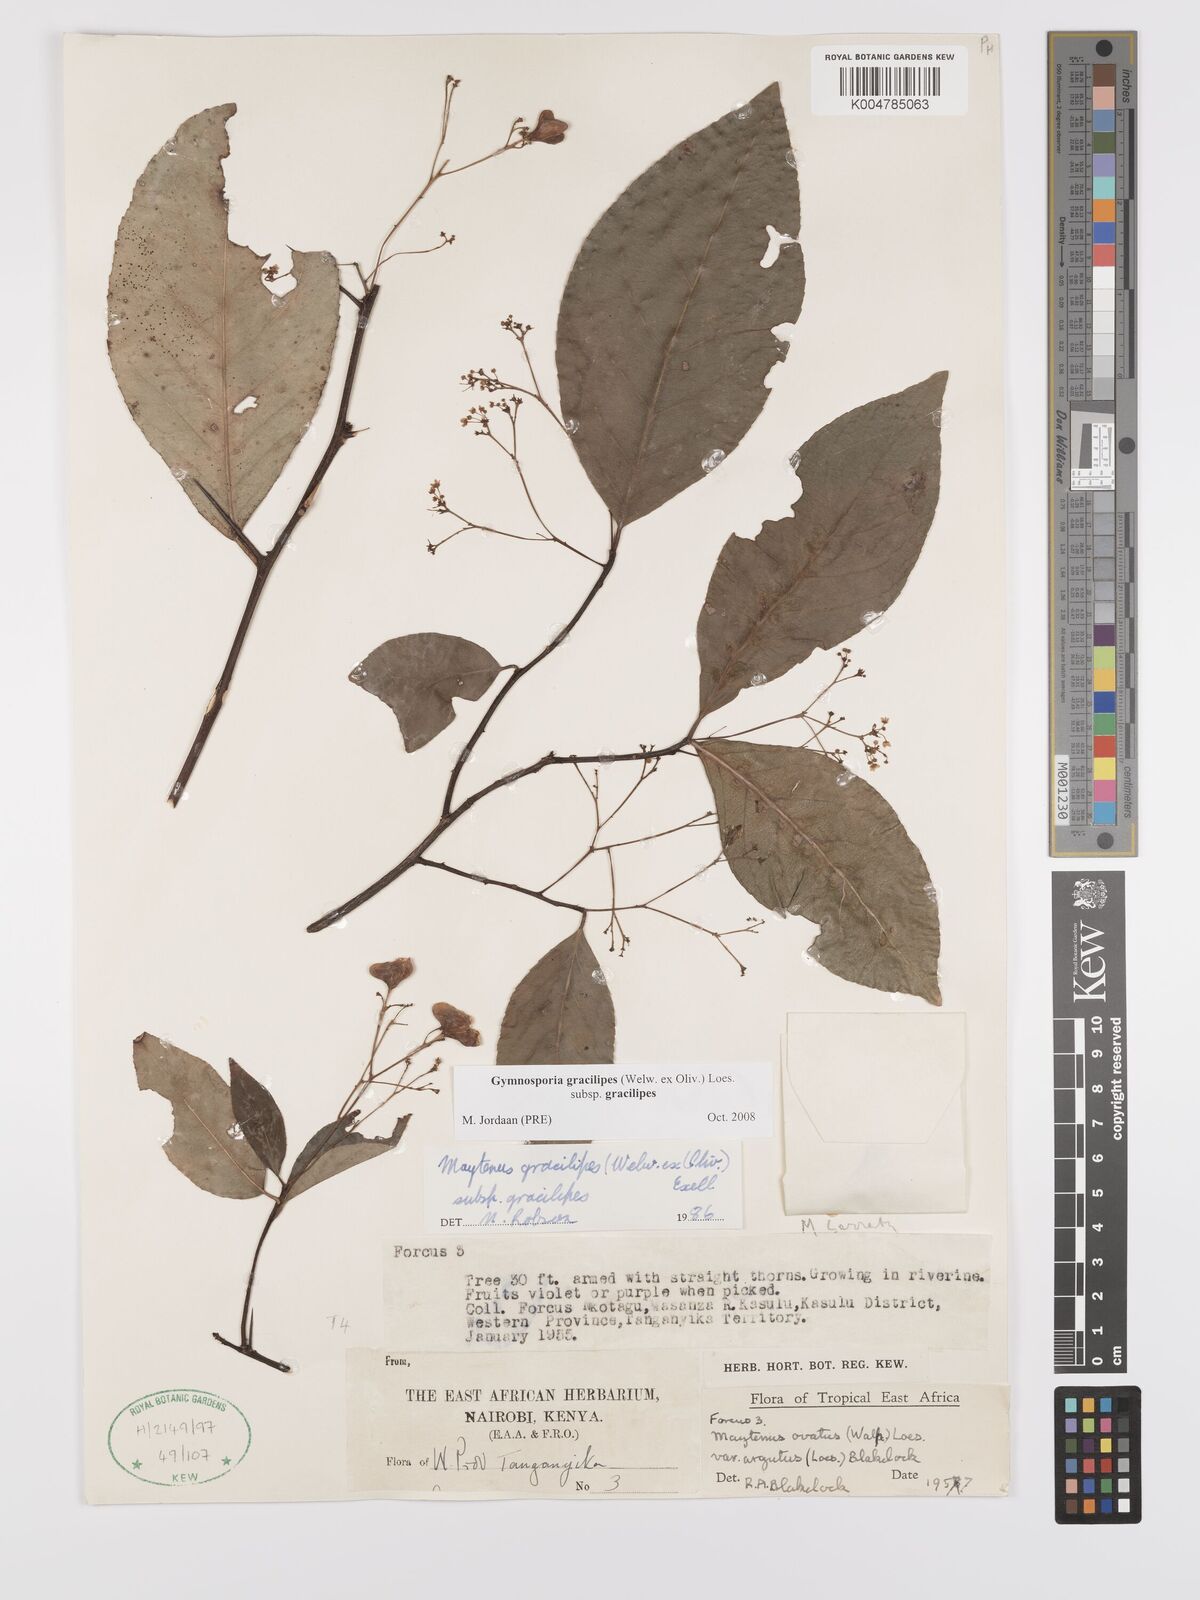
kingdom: Plantae
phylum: Tracheophyta
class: Magnoliopsida
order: Celastrales
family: Celastraceae
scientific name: Celastraceae
